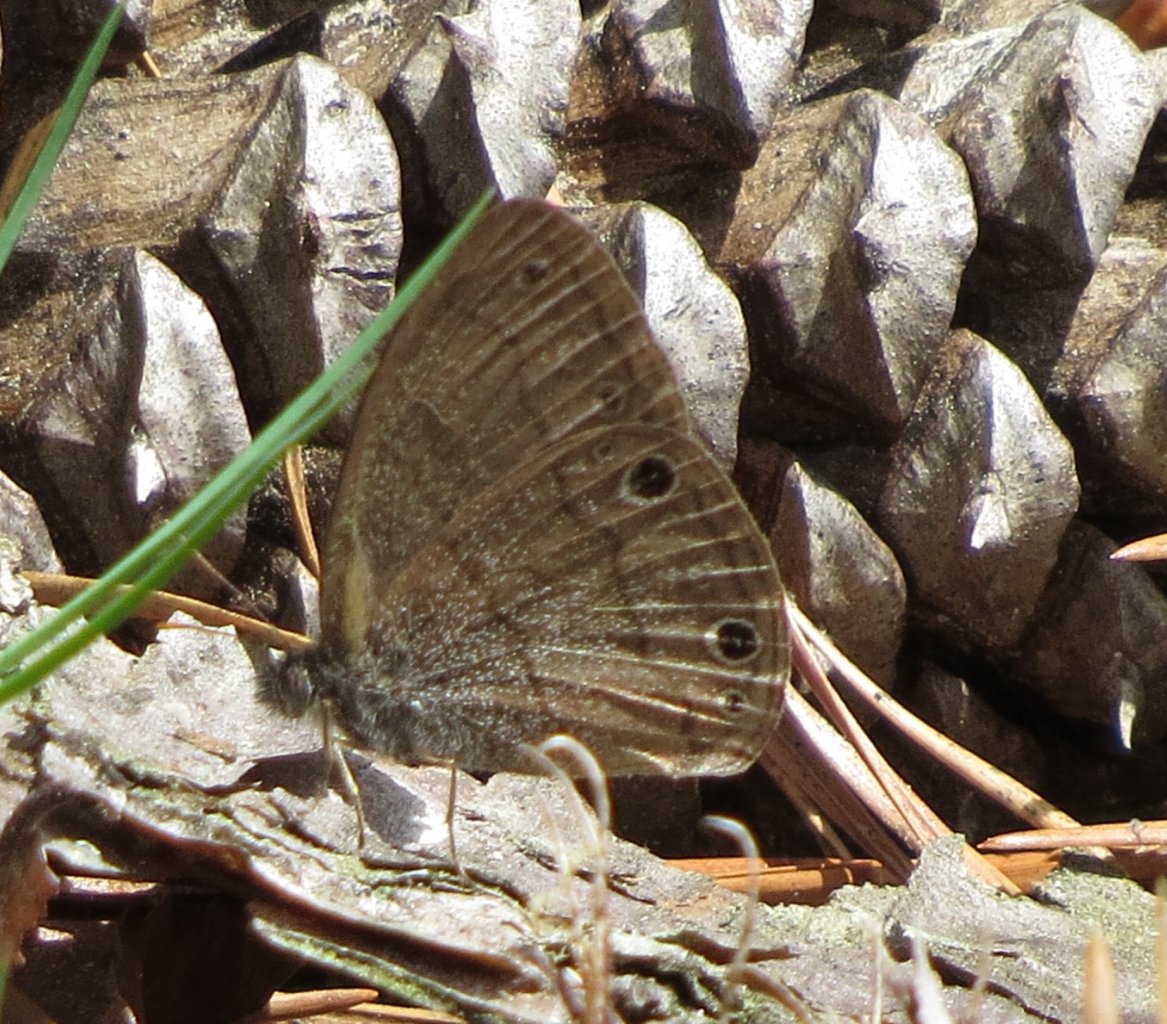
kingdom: Animalia
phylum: Arthropoda
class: Insecta
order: Lepidoptera
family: Nymphalidae
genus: Hermeuptychia
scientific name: Hermeuptychia hermes
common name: Carolina Satyr
